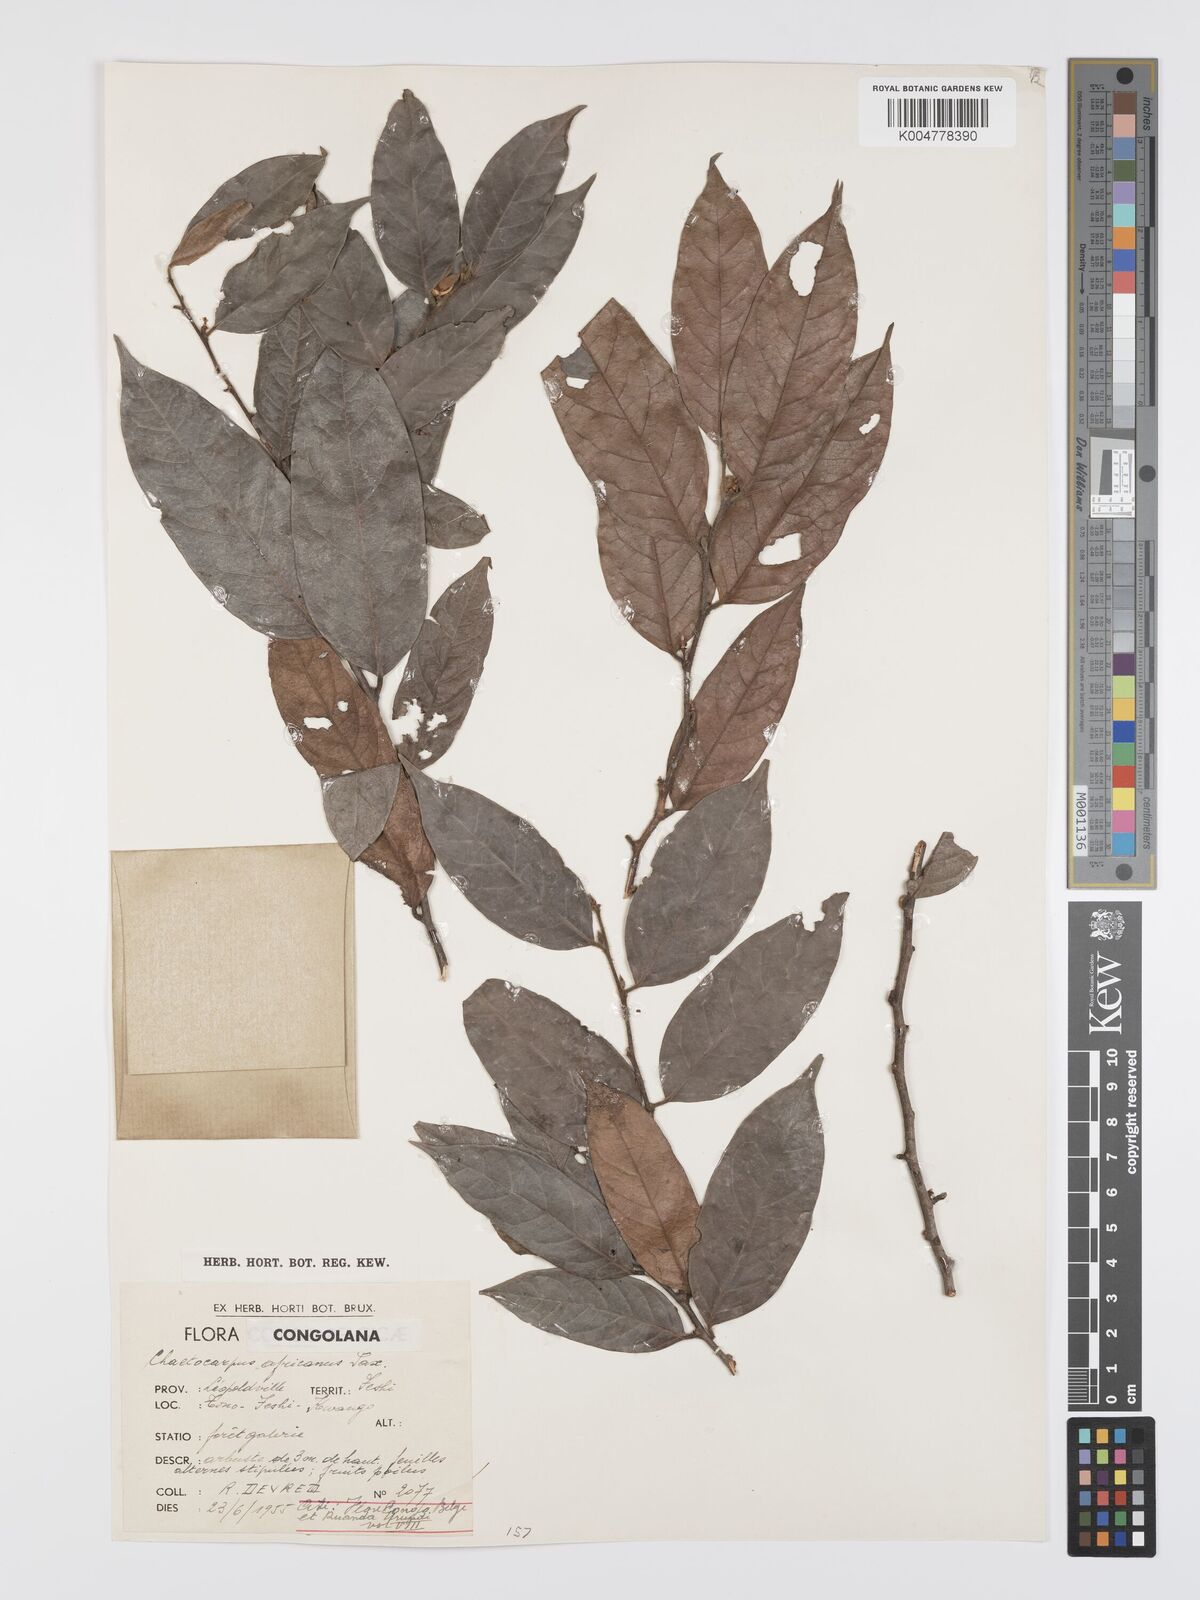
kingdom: Plantae
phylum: Tracheophyta
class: Magnoliopsida
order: Malpighiales
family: Peraceae
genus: Chaetocarpus
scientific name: Chaetocarpus africanus
